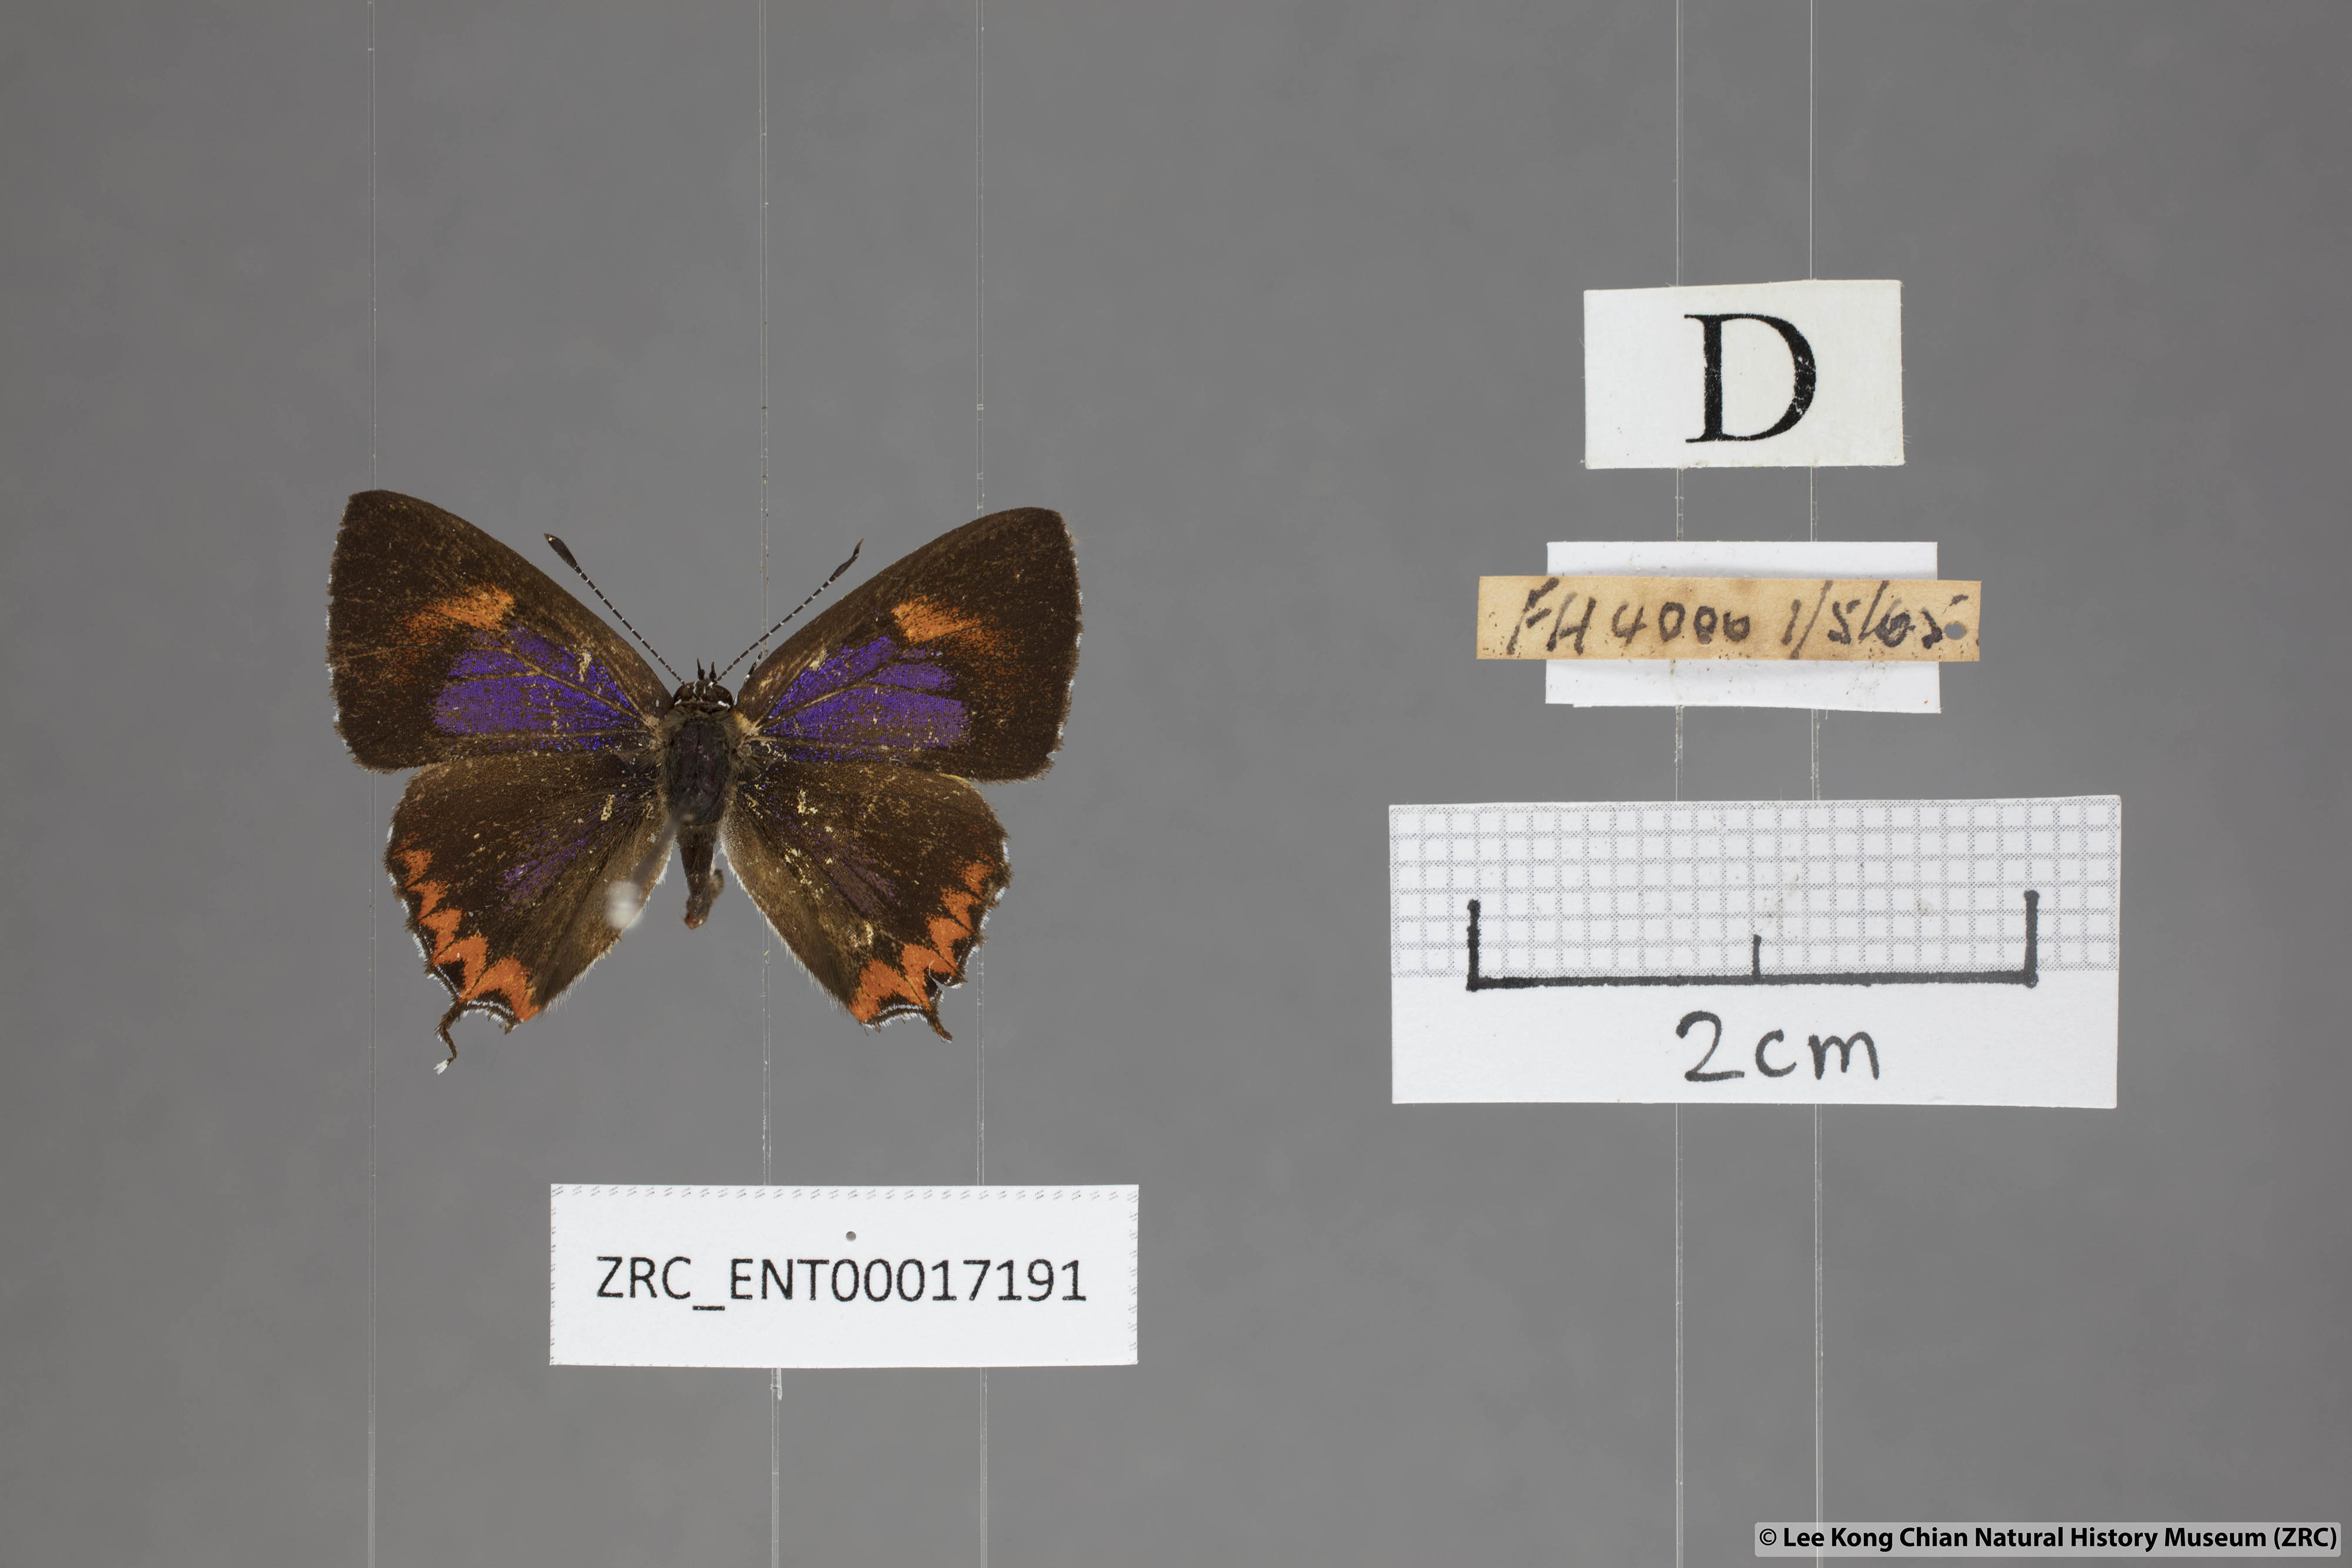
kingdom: Animalia
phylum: Arthropoda
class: Insecta
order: Lepidoptera
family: Lycaenidae
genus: Heliophorus
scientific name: Heliophorus epicles
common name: Purple sapphire
